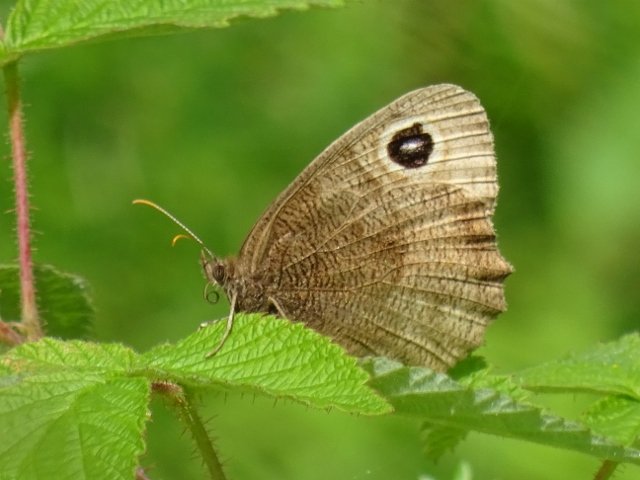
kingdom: Animalia
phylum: Arthropoda
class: Insecta
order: Lepidoptera
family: Nymphalidae
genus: Cercyonis
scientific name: Cercyonis pegala
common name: Common Wood-Nymph
